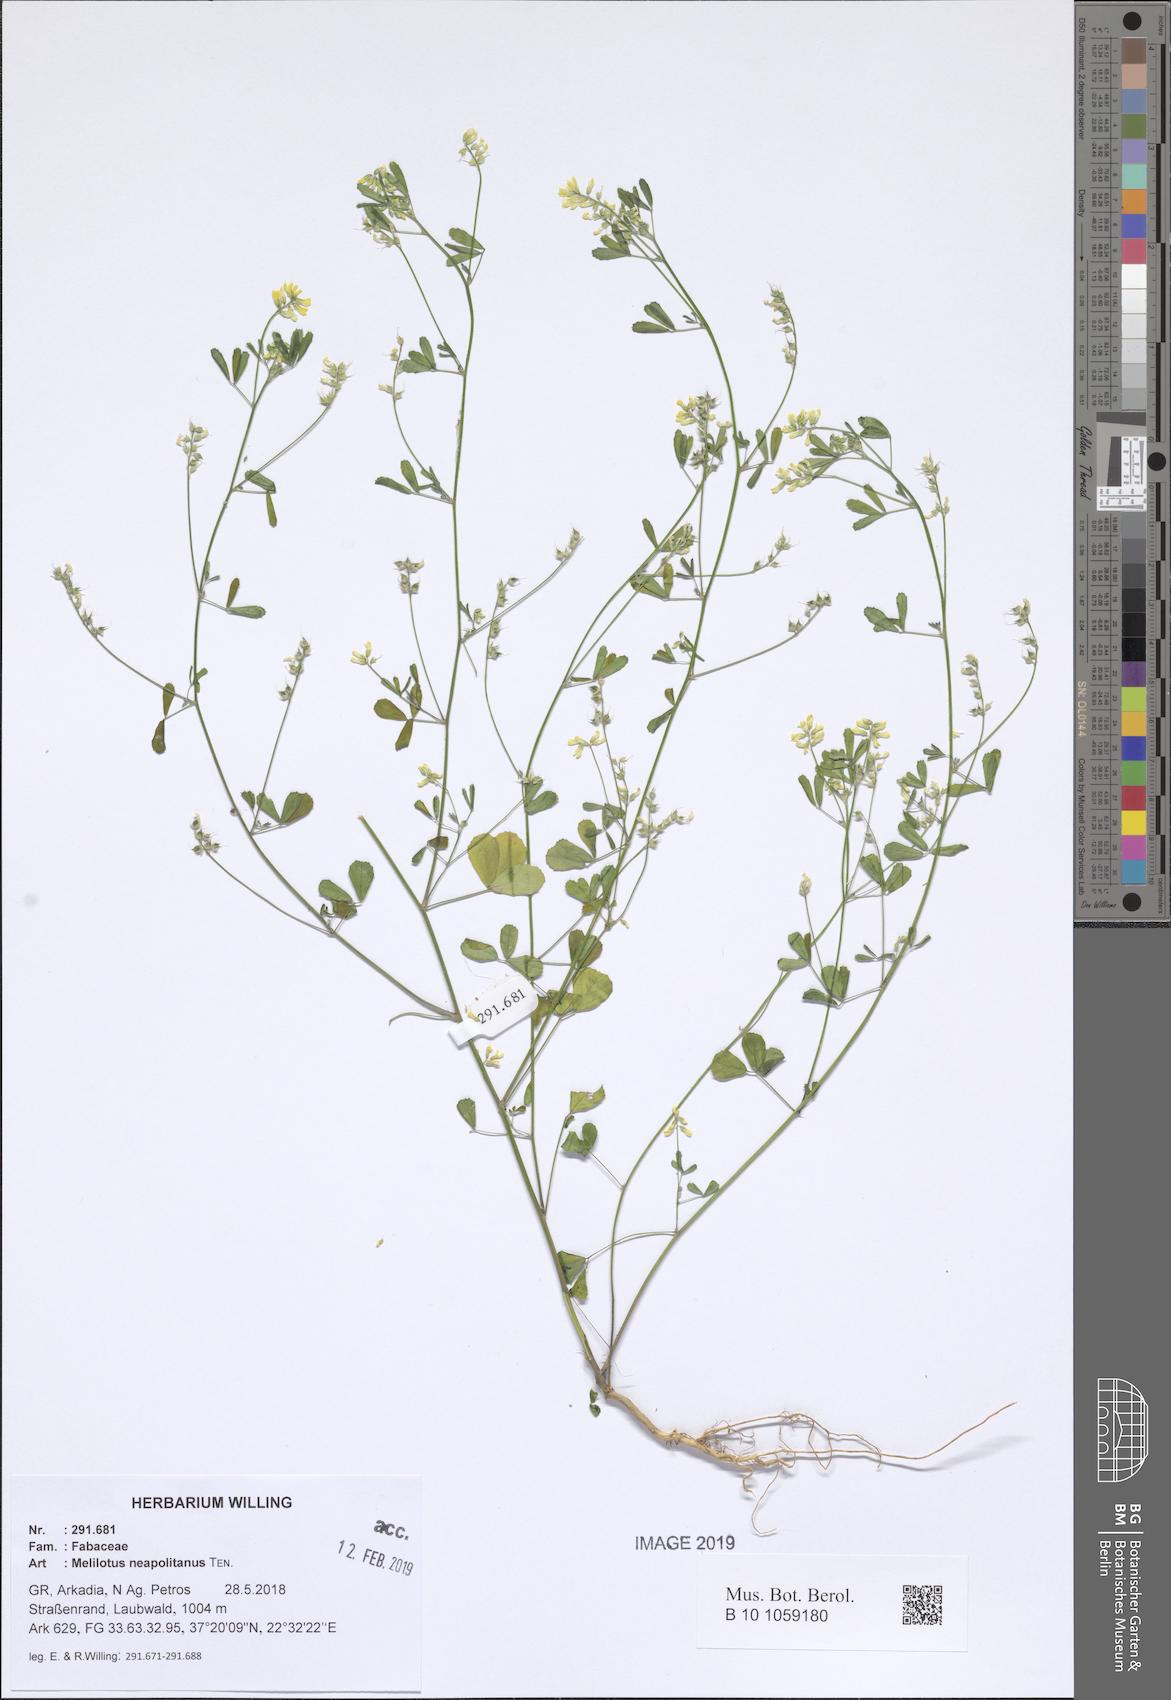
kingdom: Plantae
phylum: Tracheophyta
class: Magnoliopsida
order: Fabales
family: Fabaceae
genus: Melilotus
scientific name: Melilotus neapolitanus
